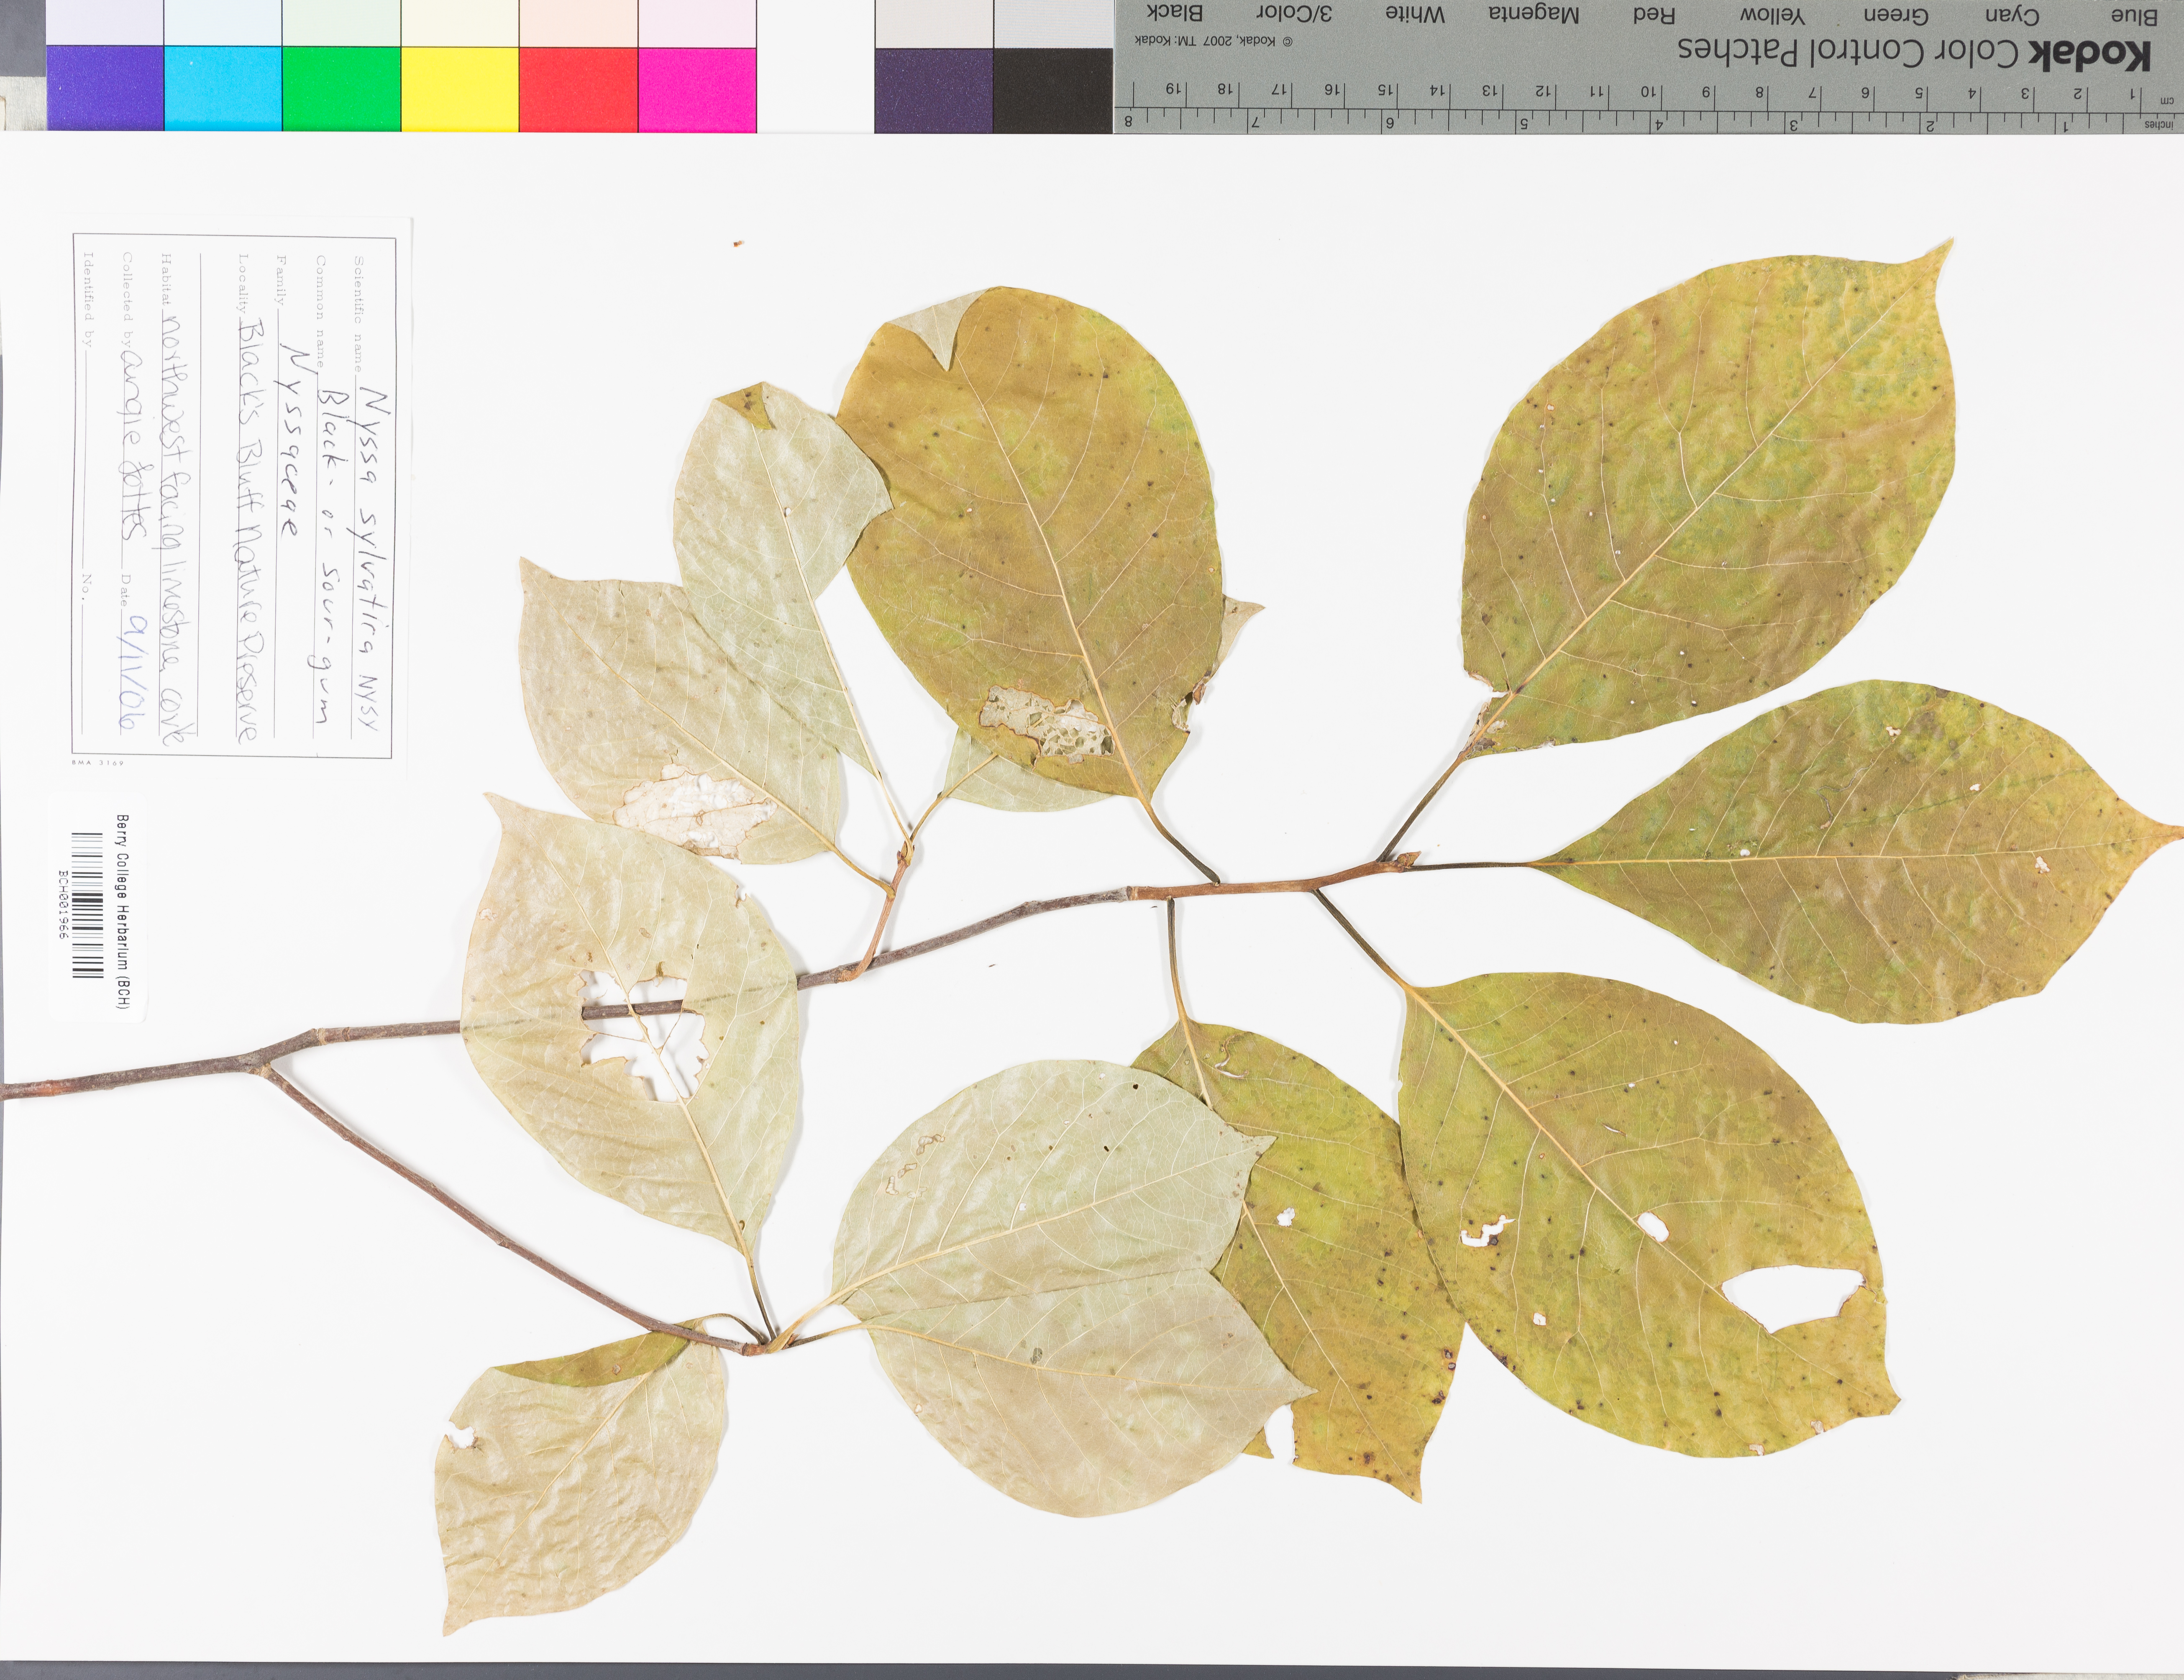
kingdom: Plantae
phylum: Tracheophyta
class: Magnoliopsida
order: Cornales
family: Nyssaceae
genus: Nyssa
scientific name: Nyssa sylvatica
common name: Black tupelo
